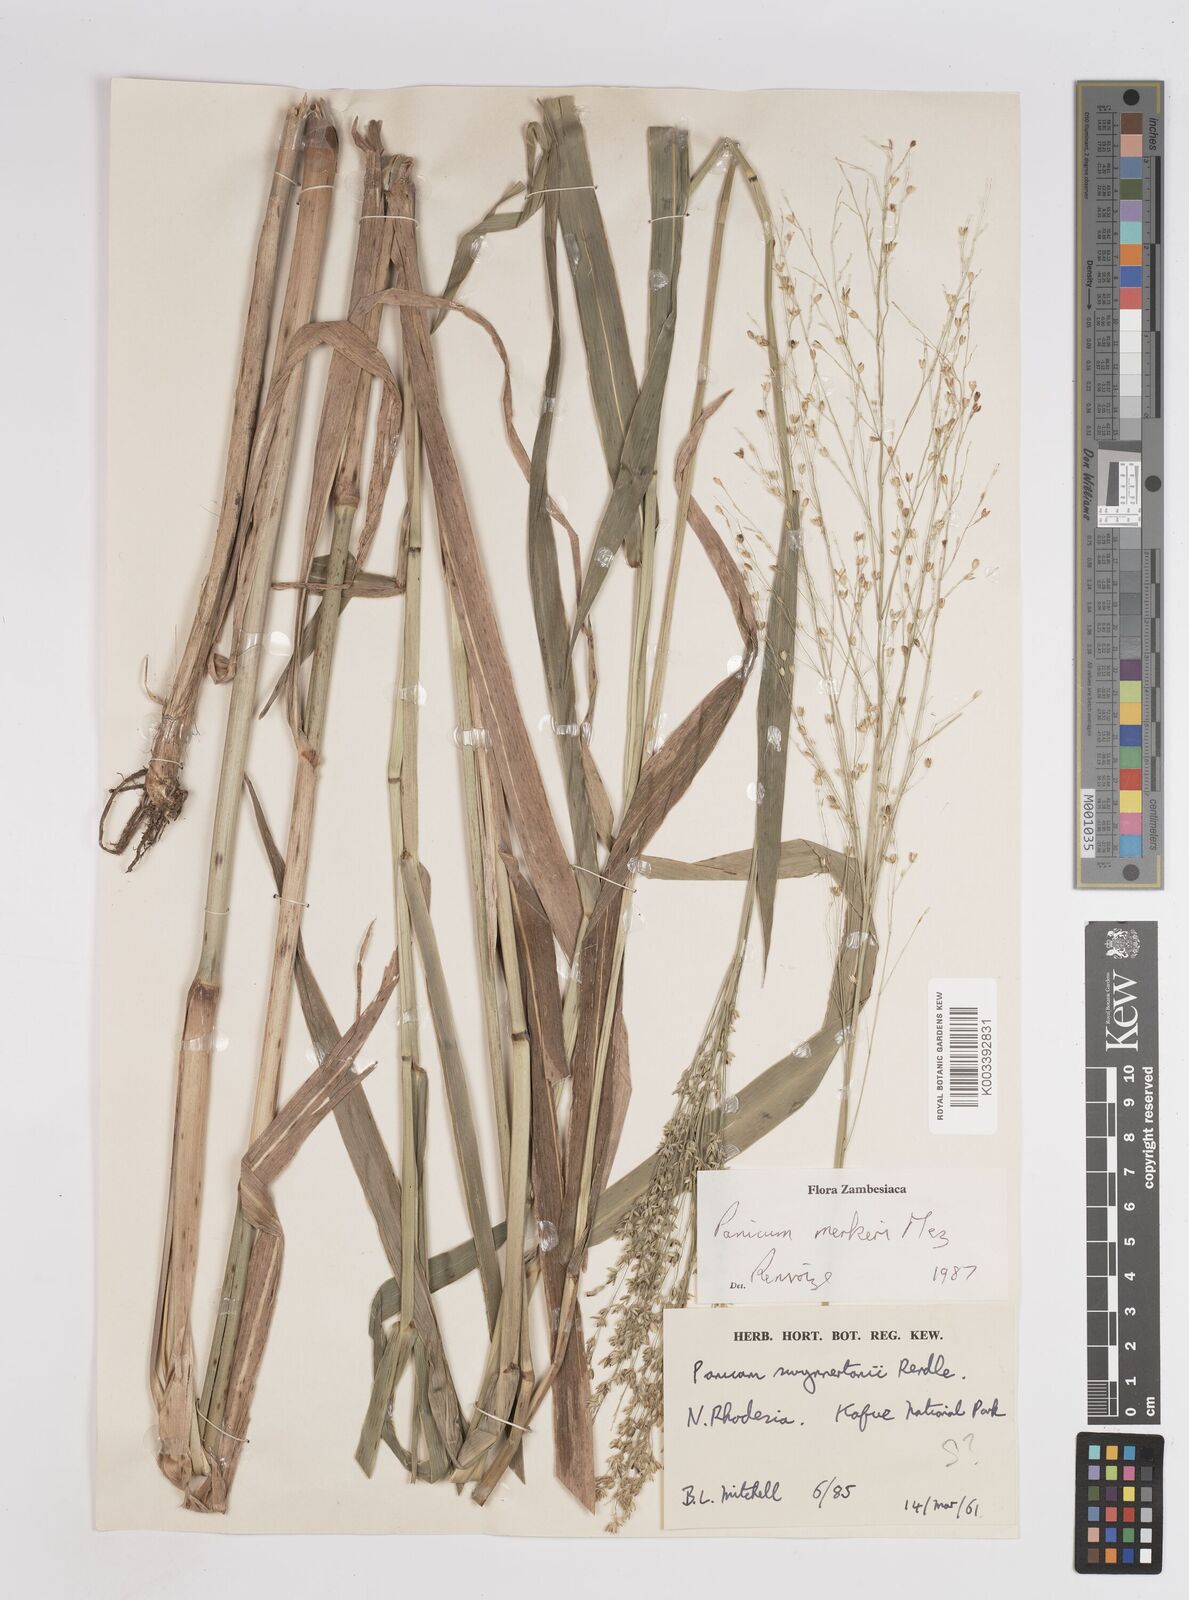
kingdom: Plantae
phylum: Tracheophyta
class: Liliopsida
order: Poales
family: Poaceae
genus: Panicum
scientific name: Panicum merkeri
